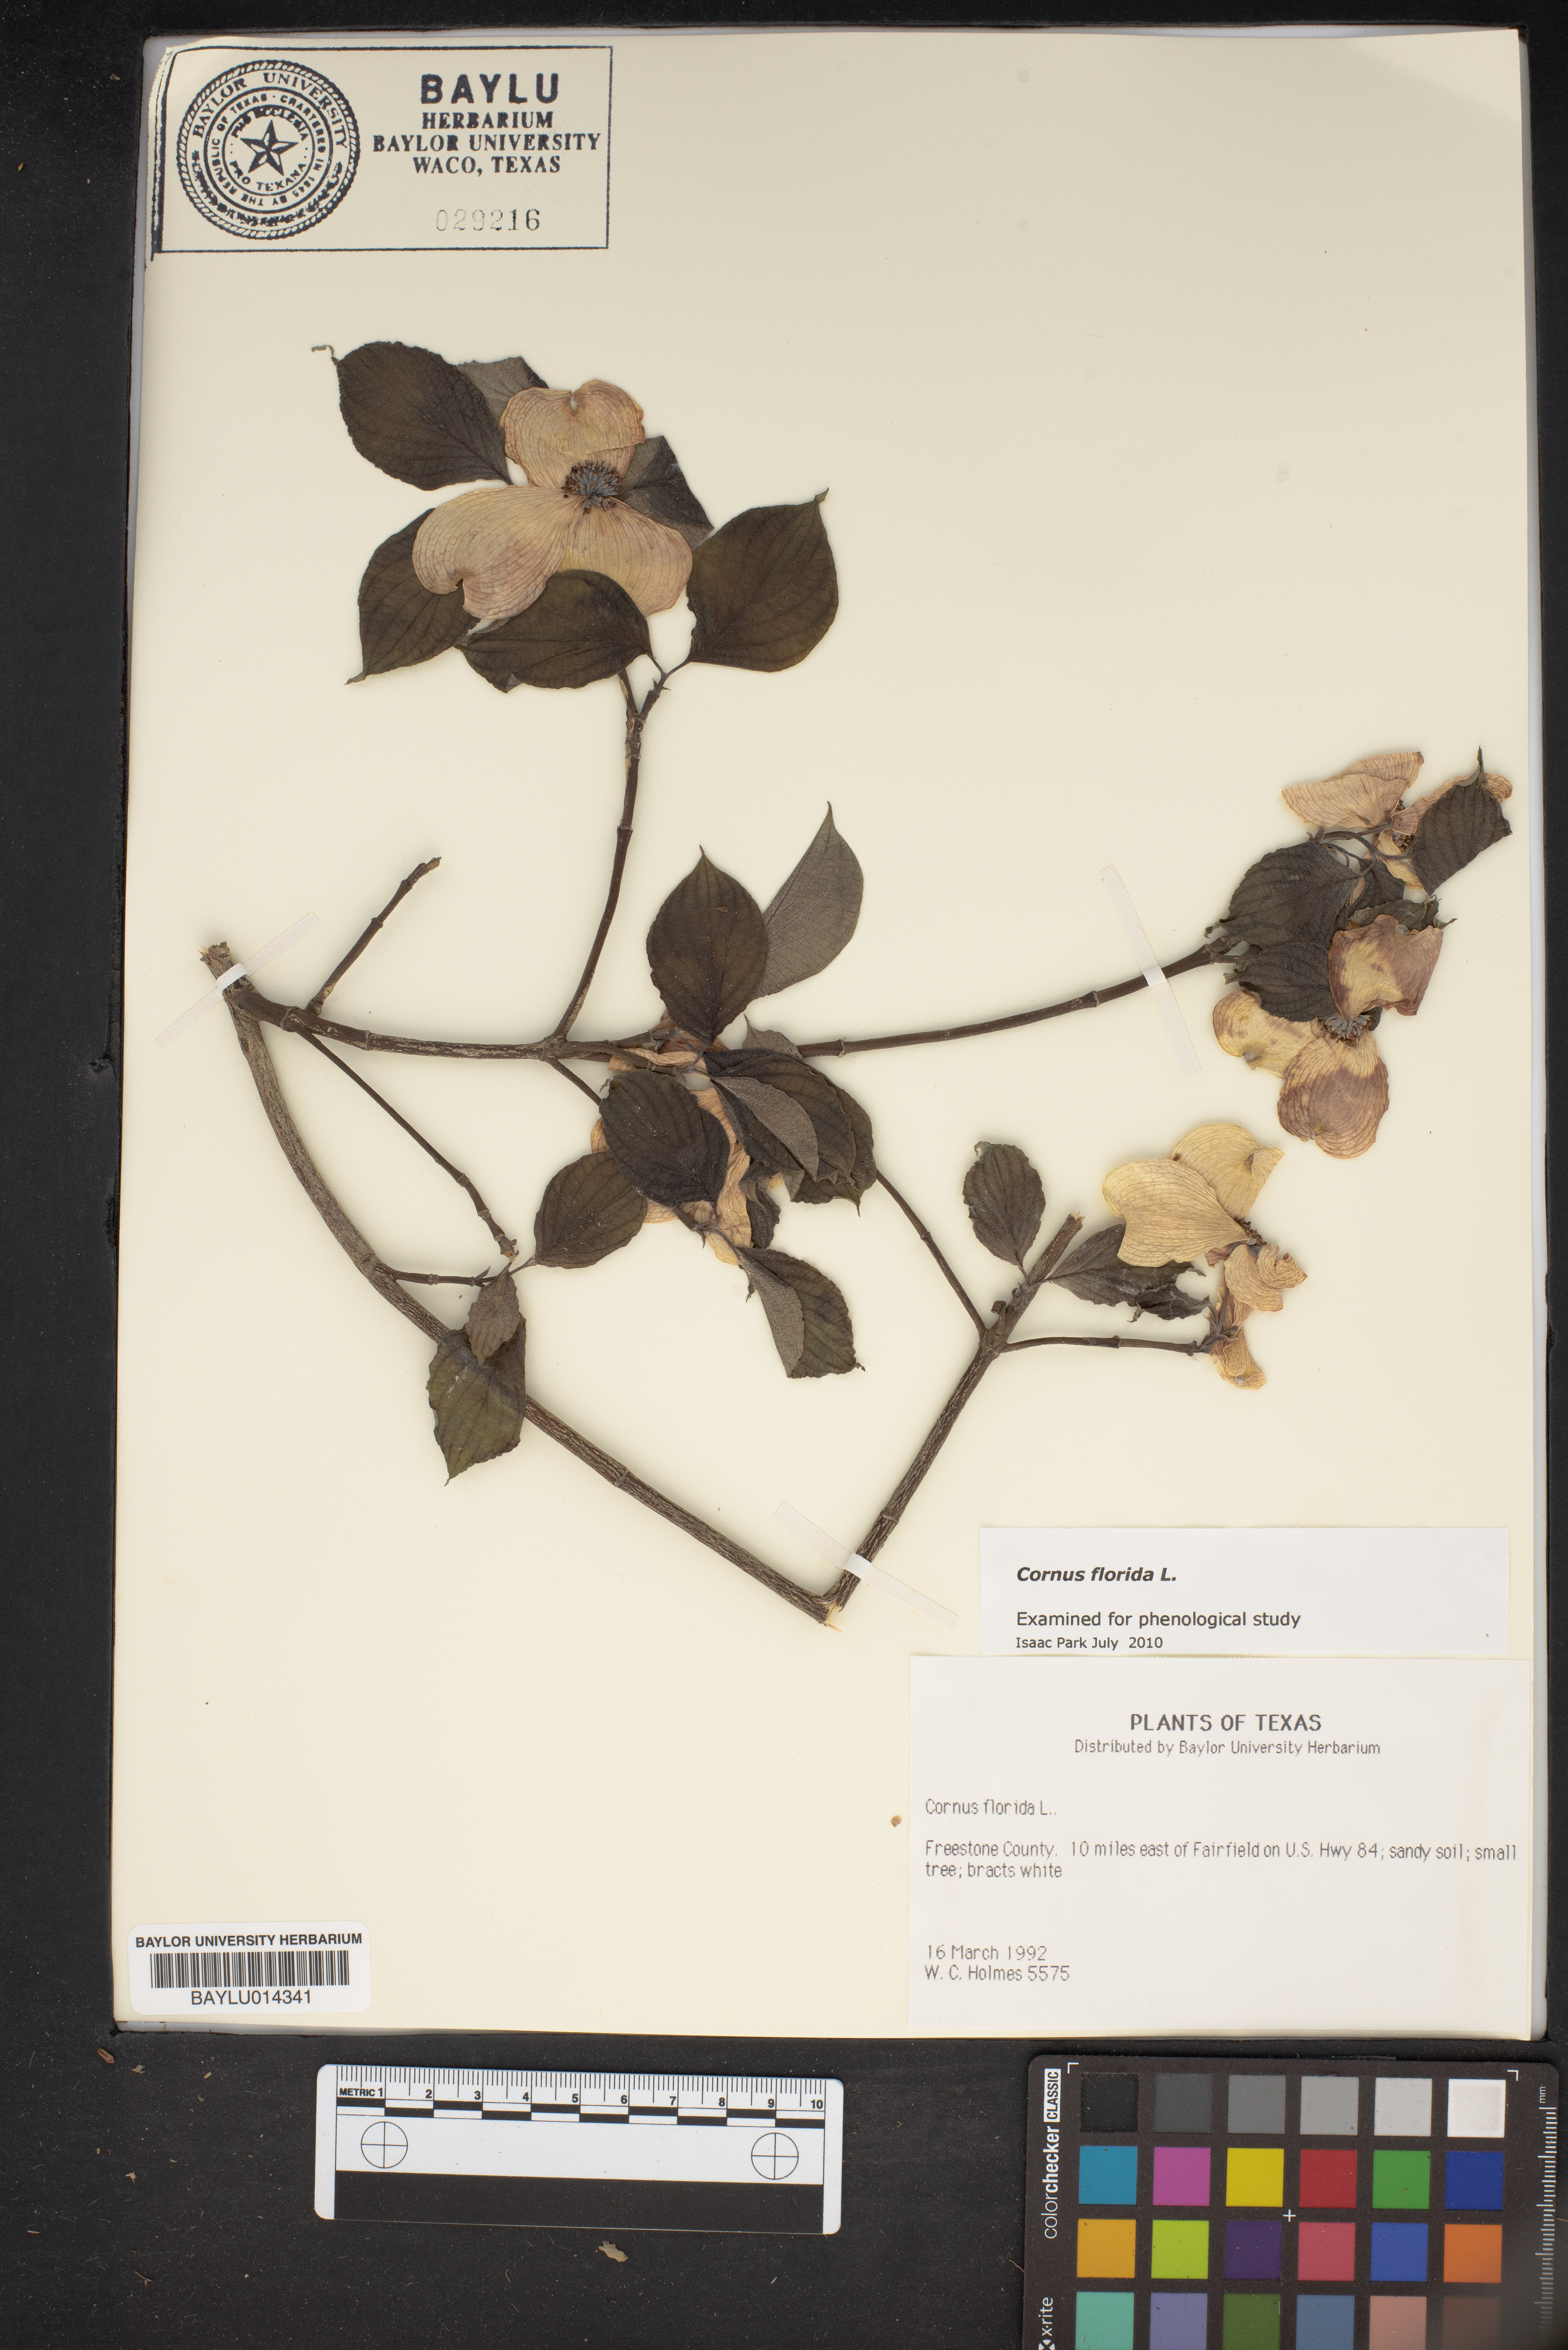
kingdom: Plantae
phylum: Tracheophyta
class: Magnoliopsida
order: Cornales
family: Cornaceae
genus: Cornus
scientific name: Cornus florida
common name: Flowering dogwood
